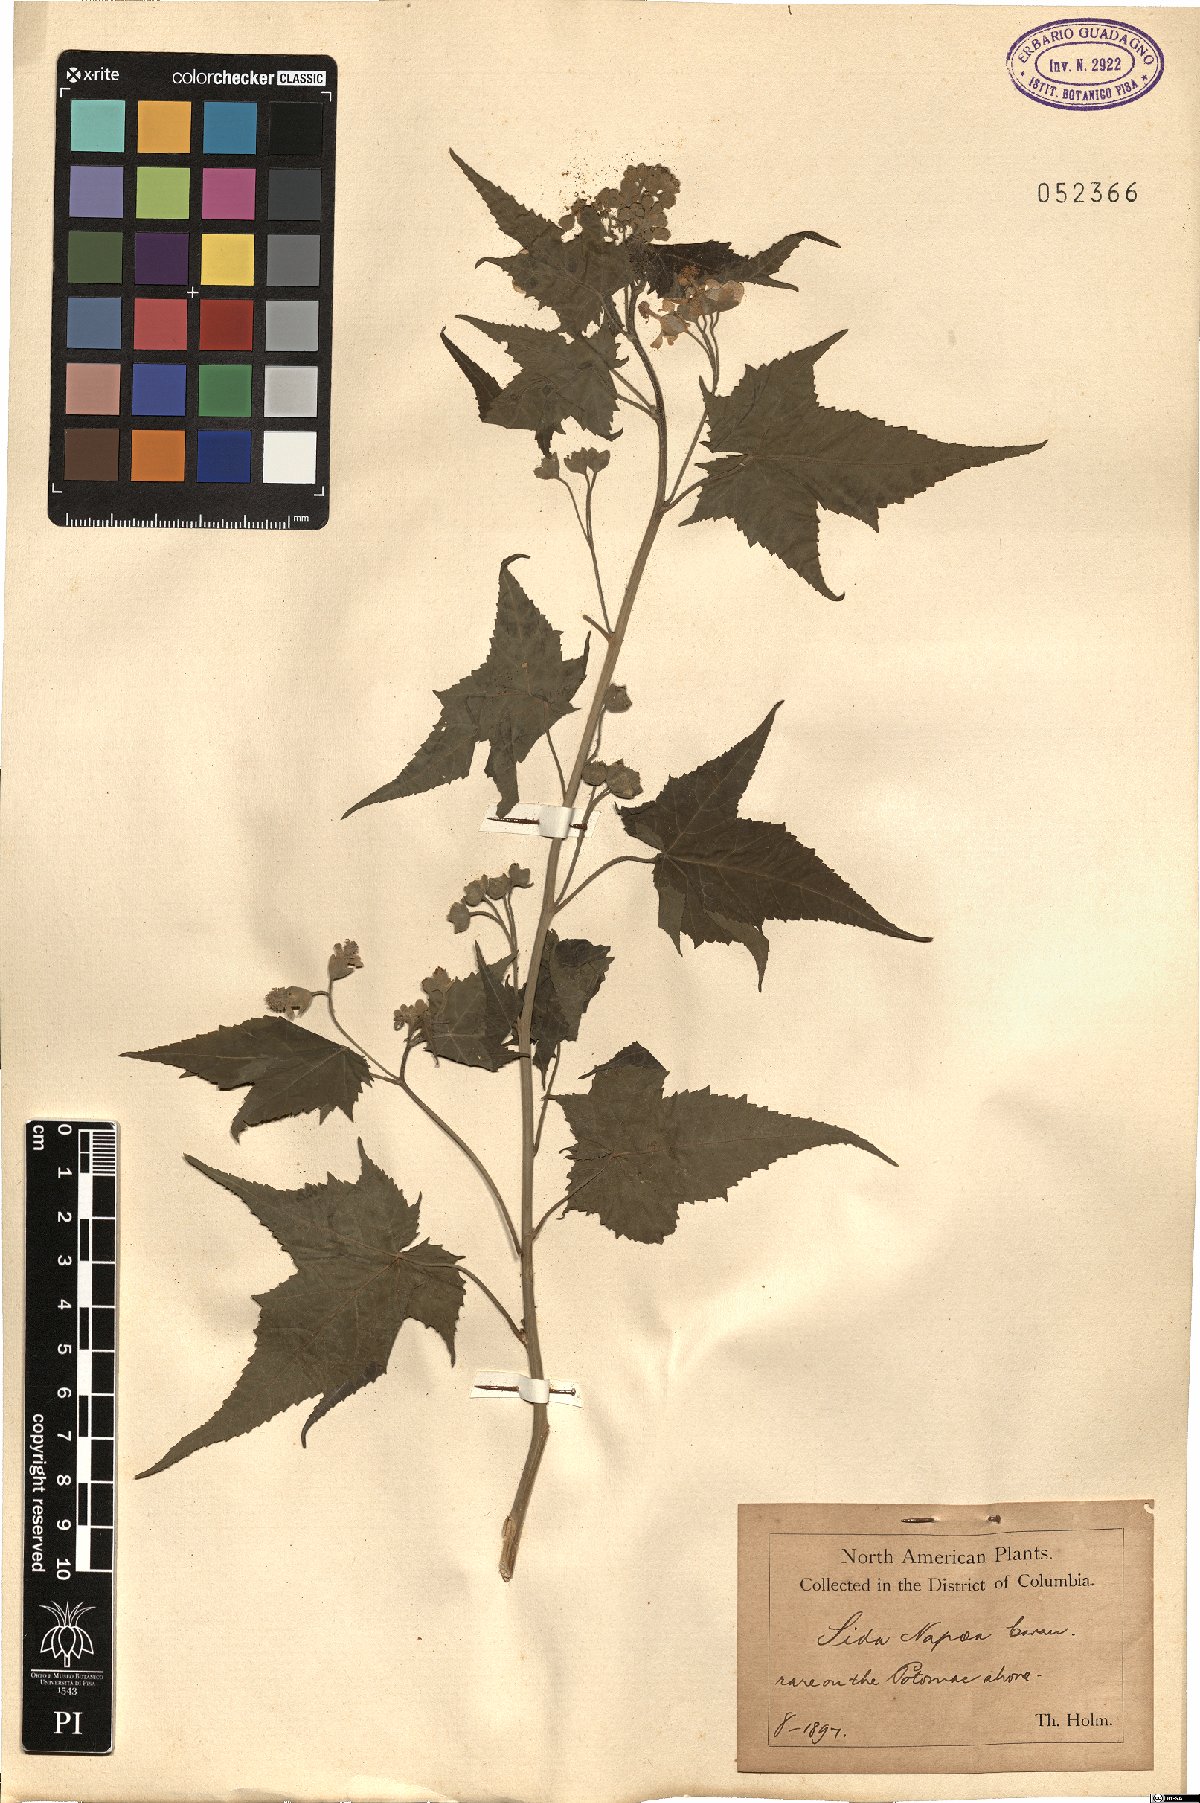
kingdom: Plantae
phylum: Tracheophyta
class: Magnoliopsida
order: Malvales
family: Malvaceae
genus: Ripariosida
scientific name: Ripariosida hermaphrodita
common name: Virginia fanpetals
